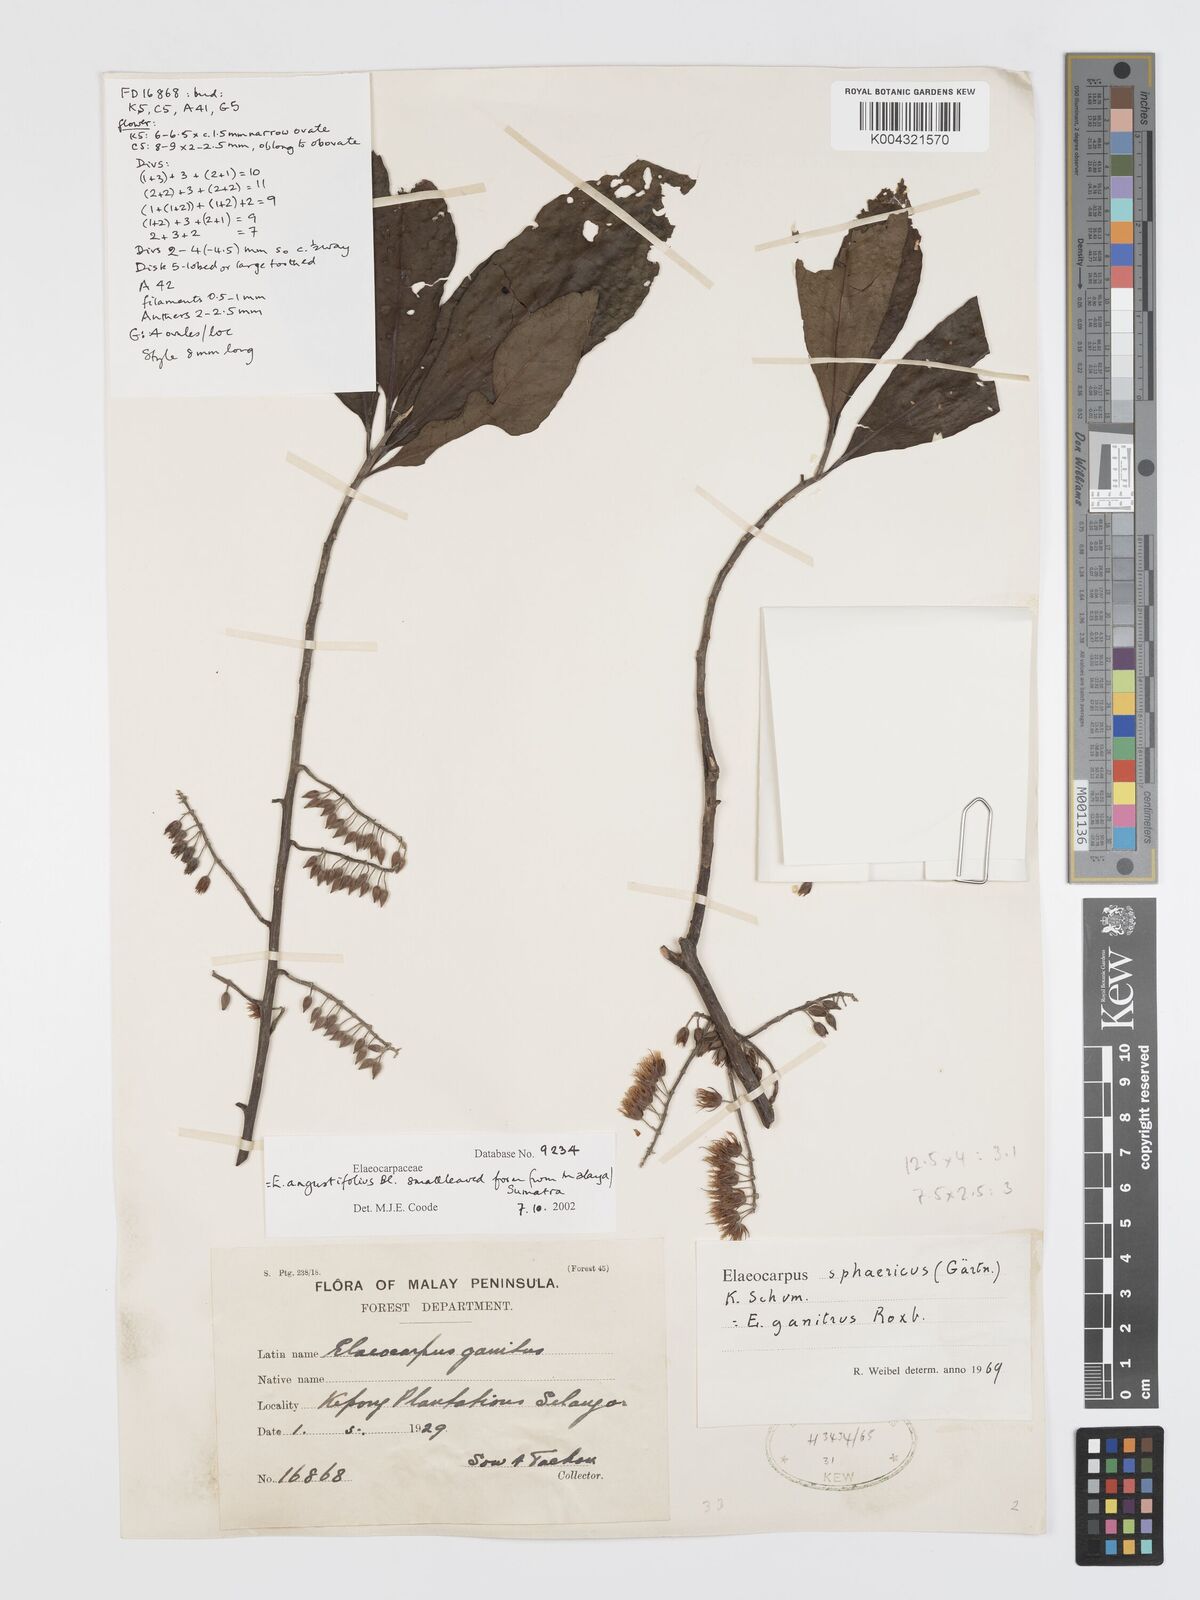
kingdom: Plantae
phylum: Tracheophyta
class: Magnoliopsida
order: Oxalidales
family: Elaeocarpaceae
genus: Elaeocarpus
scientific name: Elaeocarpus sphaericus
